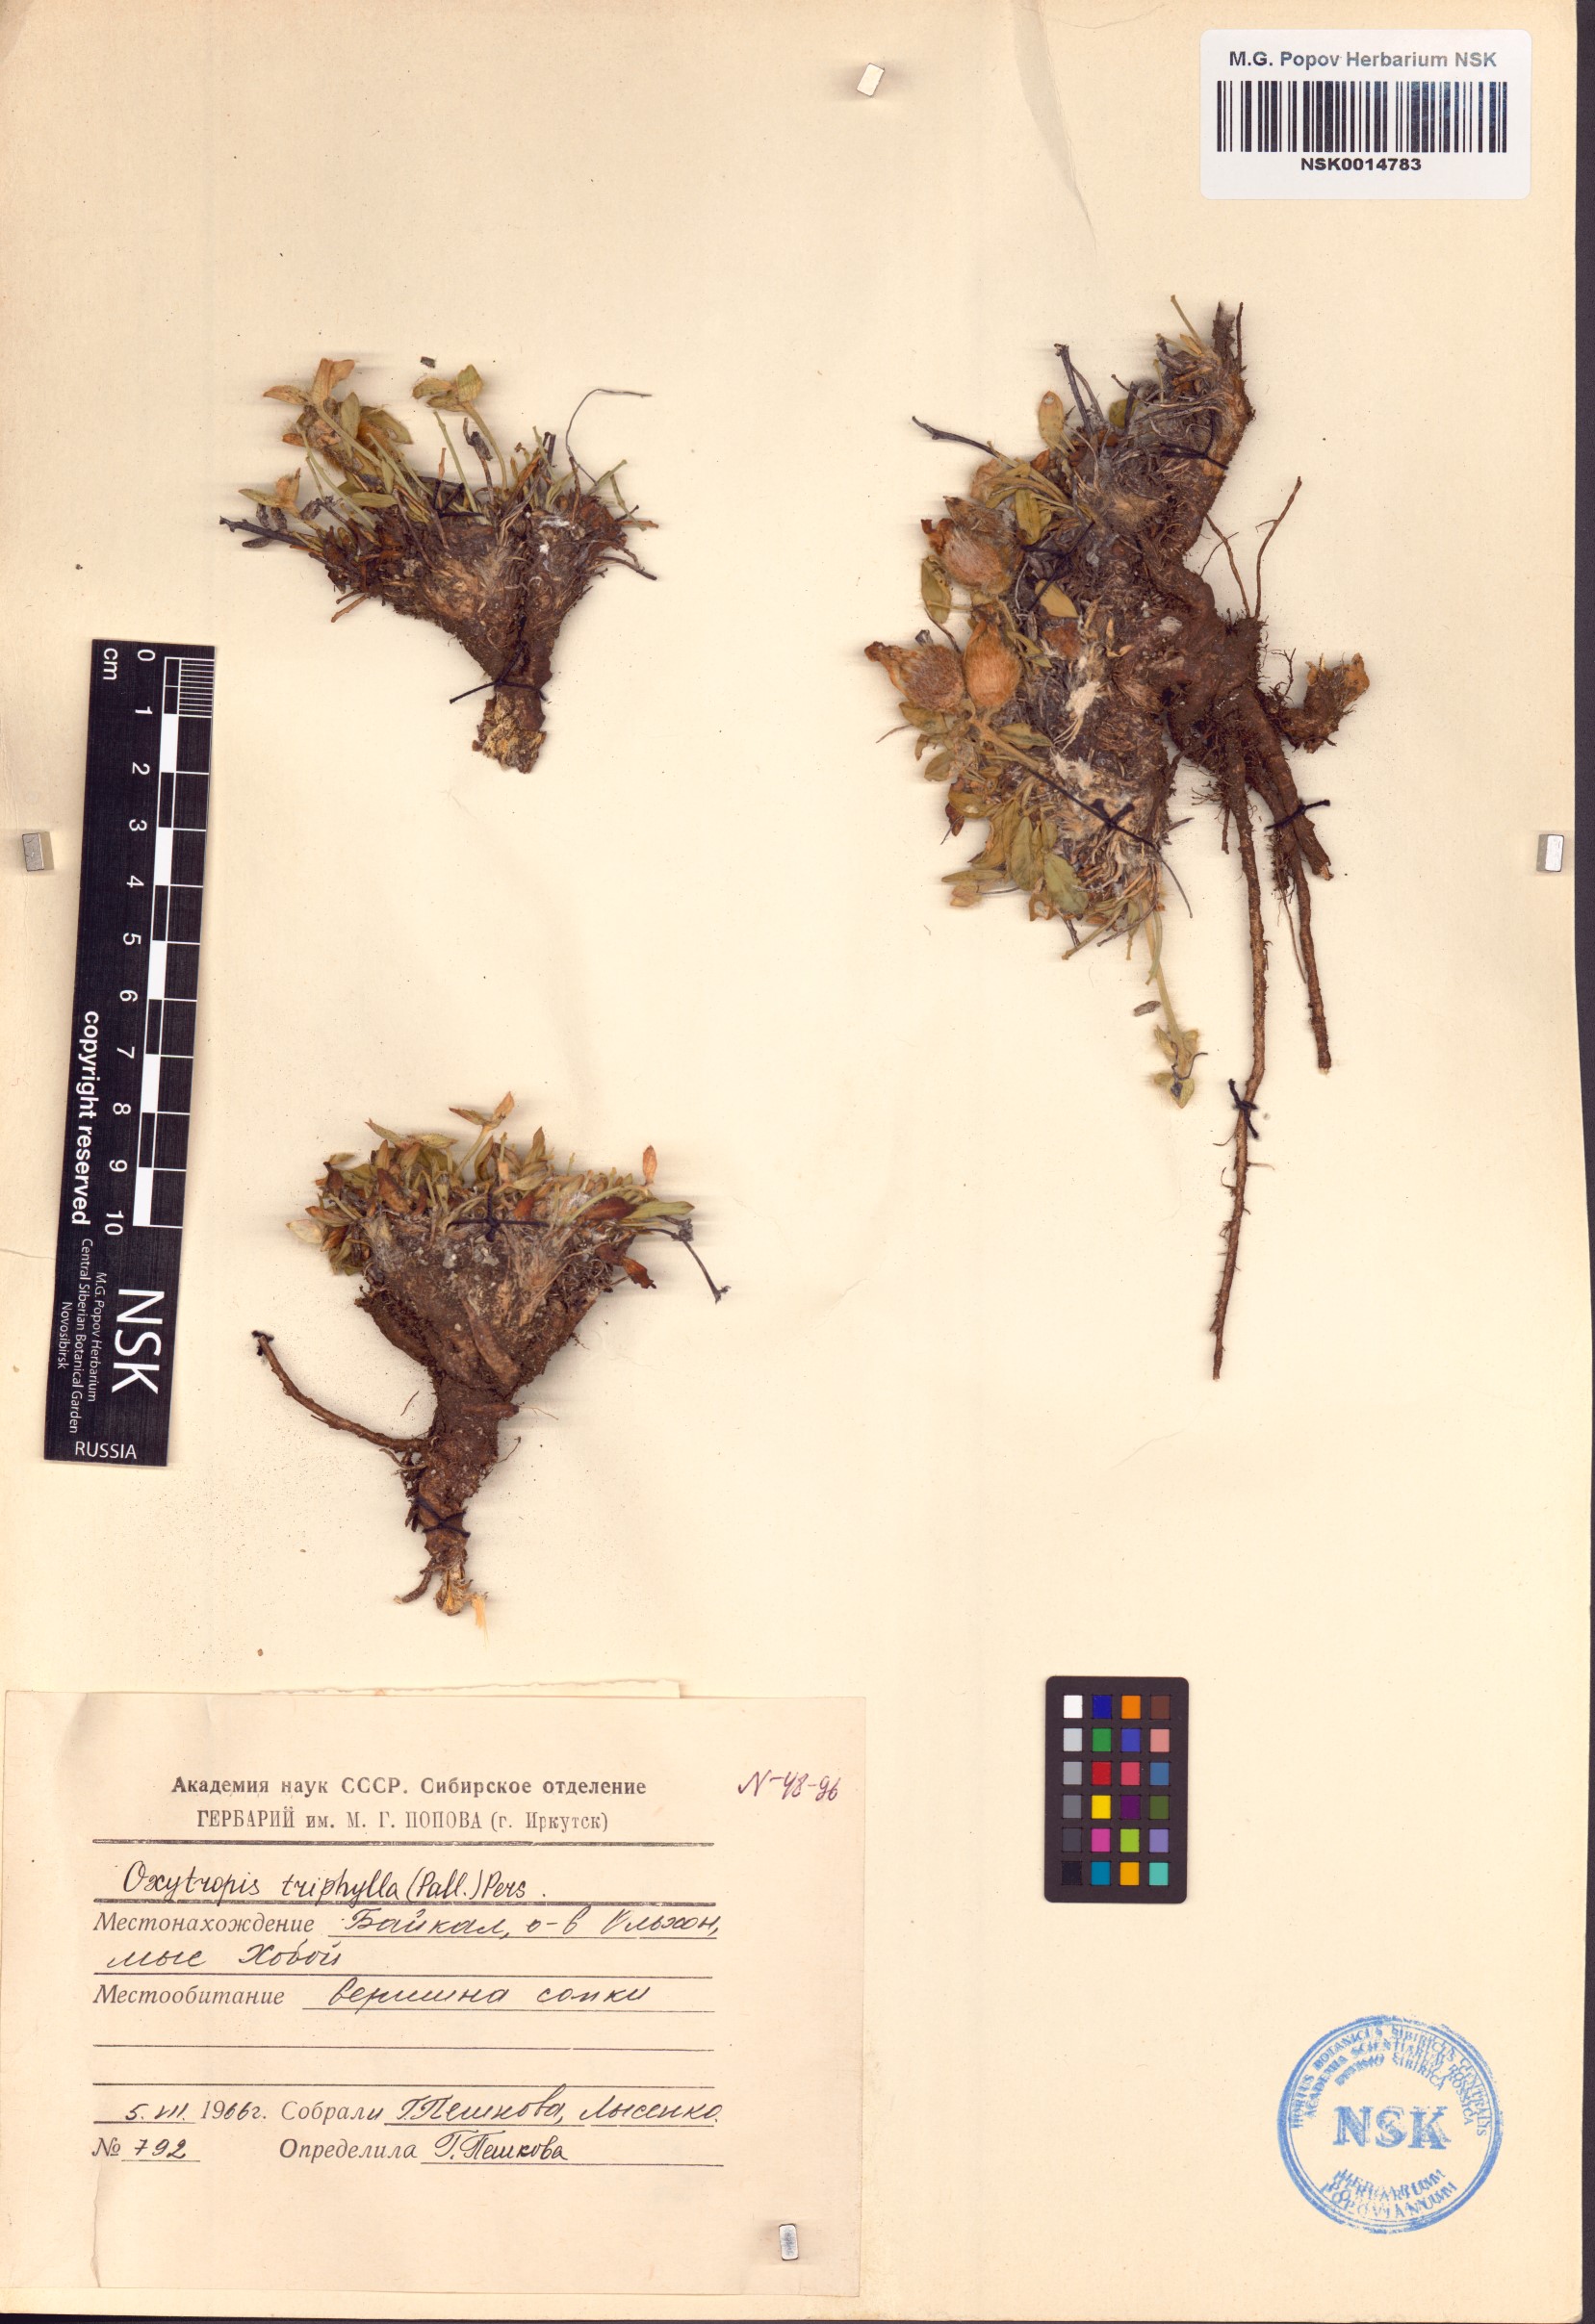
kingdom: Plantae
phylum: Tracheophyta
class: Magnoliopsida
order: Fabales
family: Fabaceae
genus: Oxytropis
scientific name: Oxytropis triphylla
